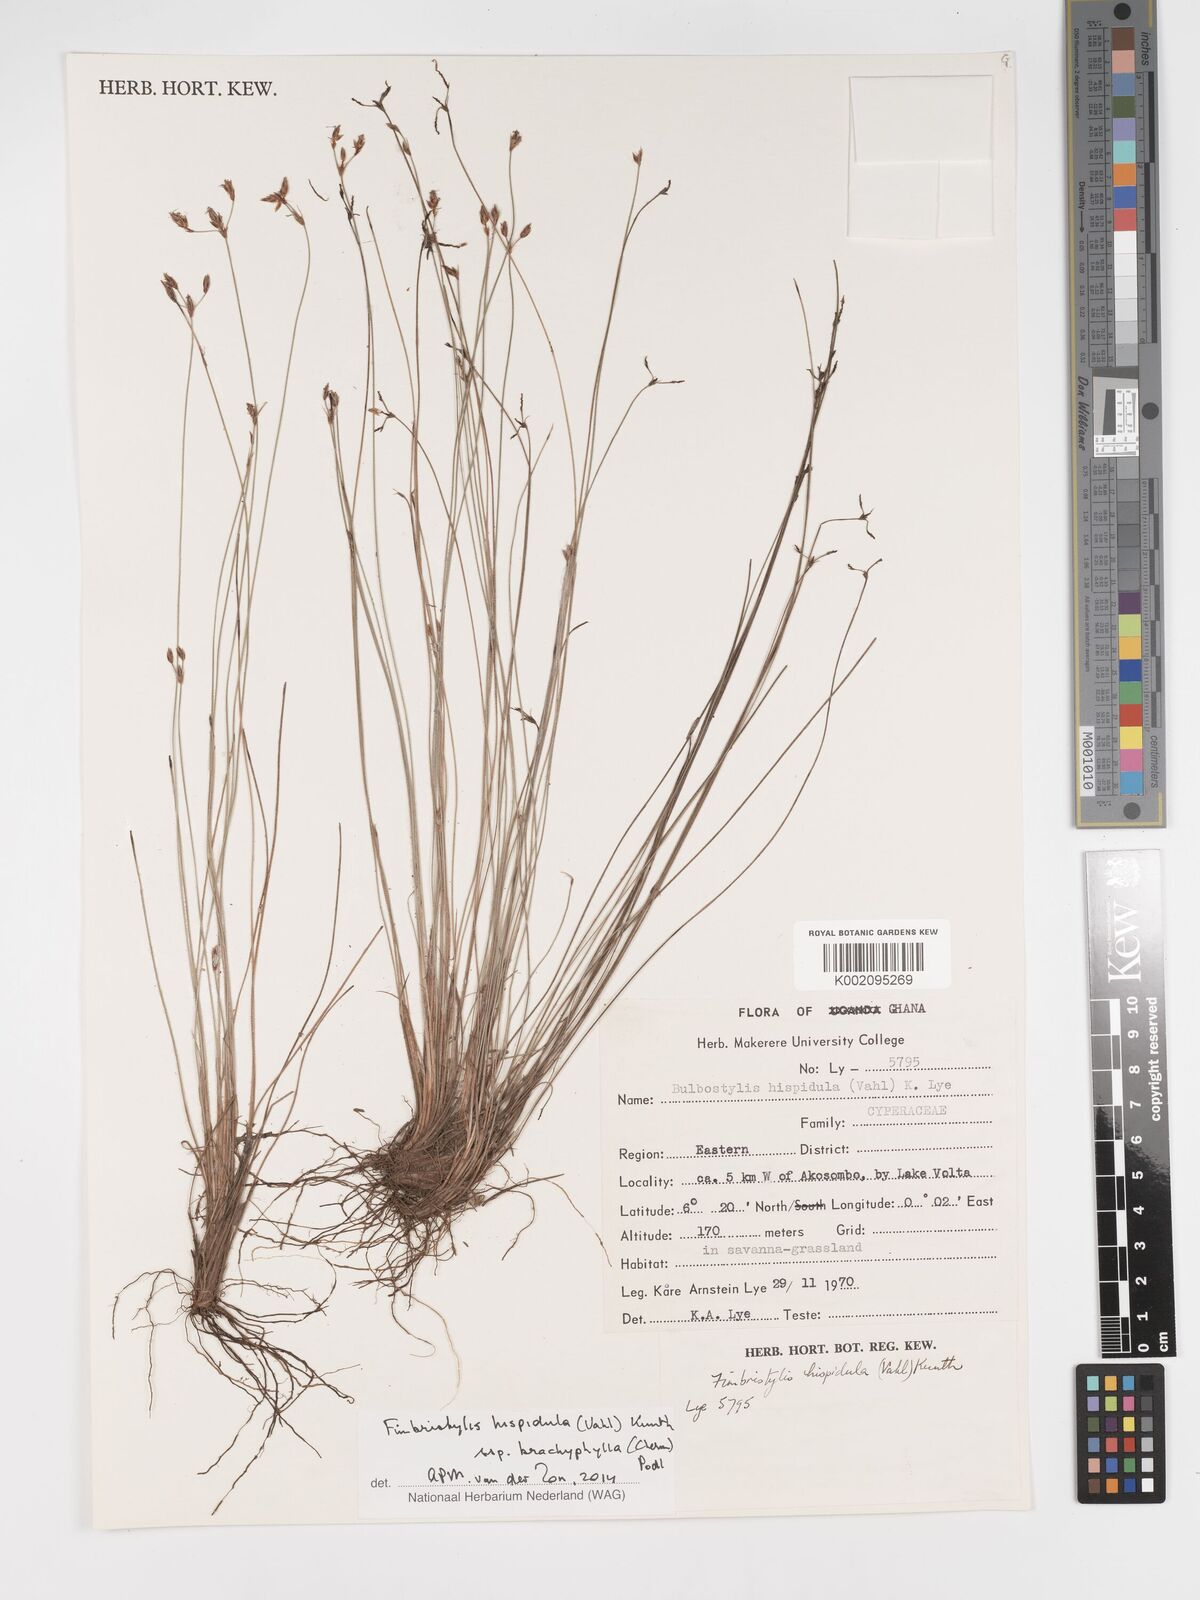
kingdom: Plantae
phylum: Tracheophyta
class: Liliopsida
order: Poales
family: Cyperaceae
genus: Bulbostylis
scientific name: Bulbostylis hispidula
